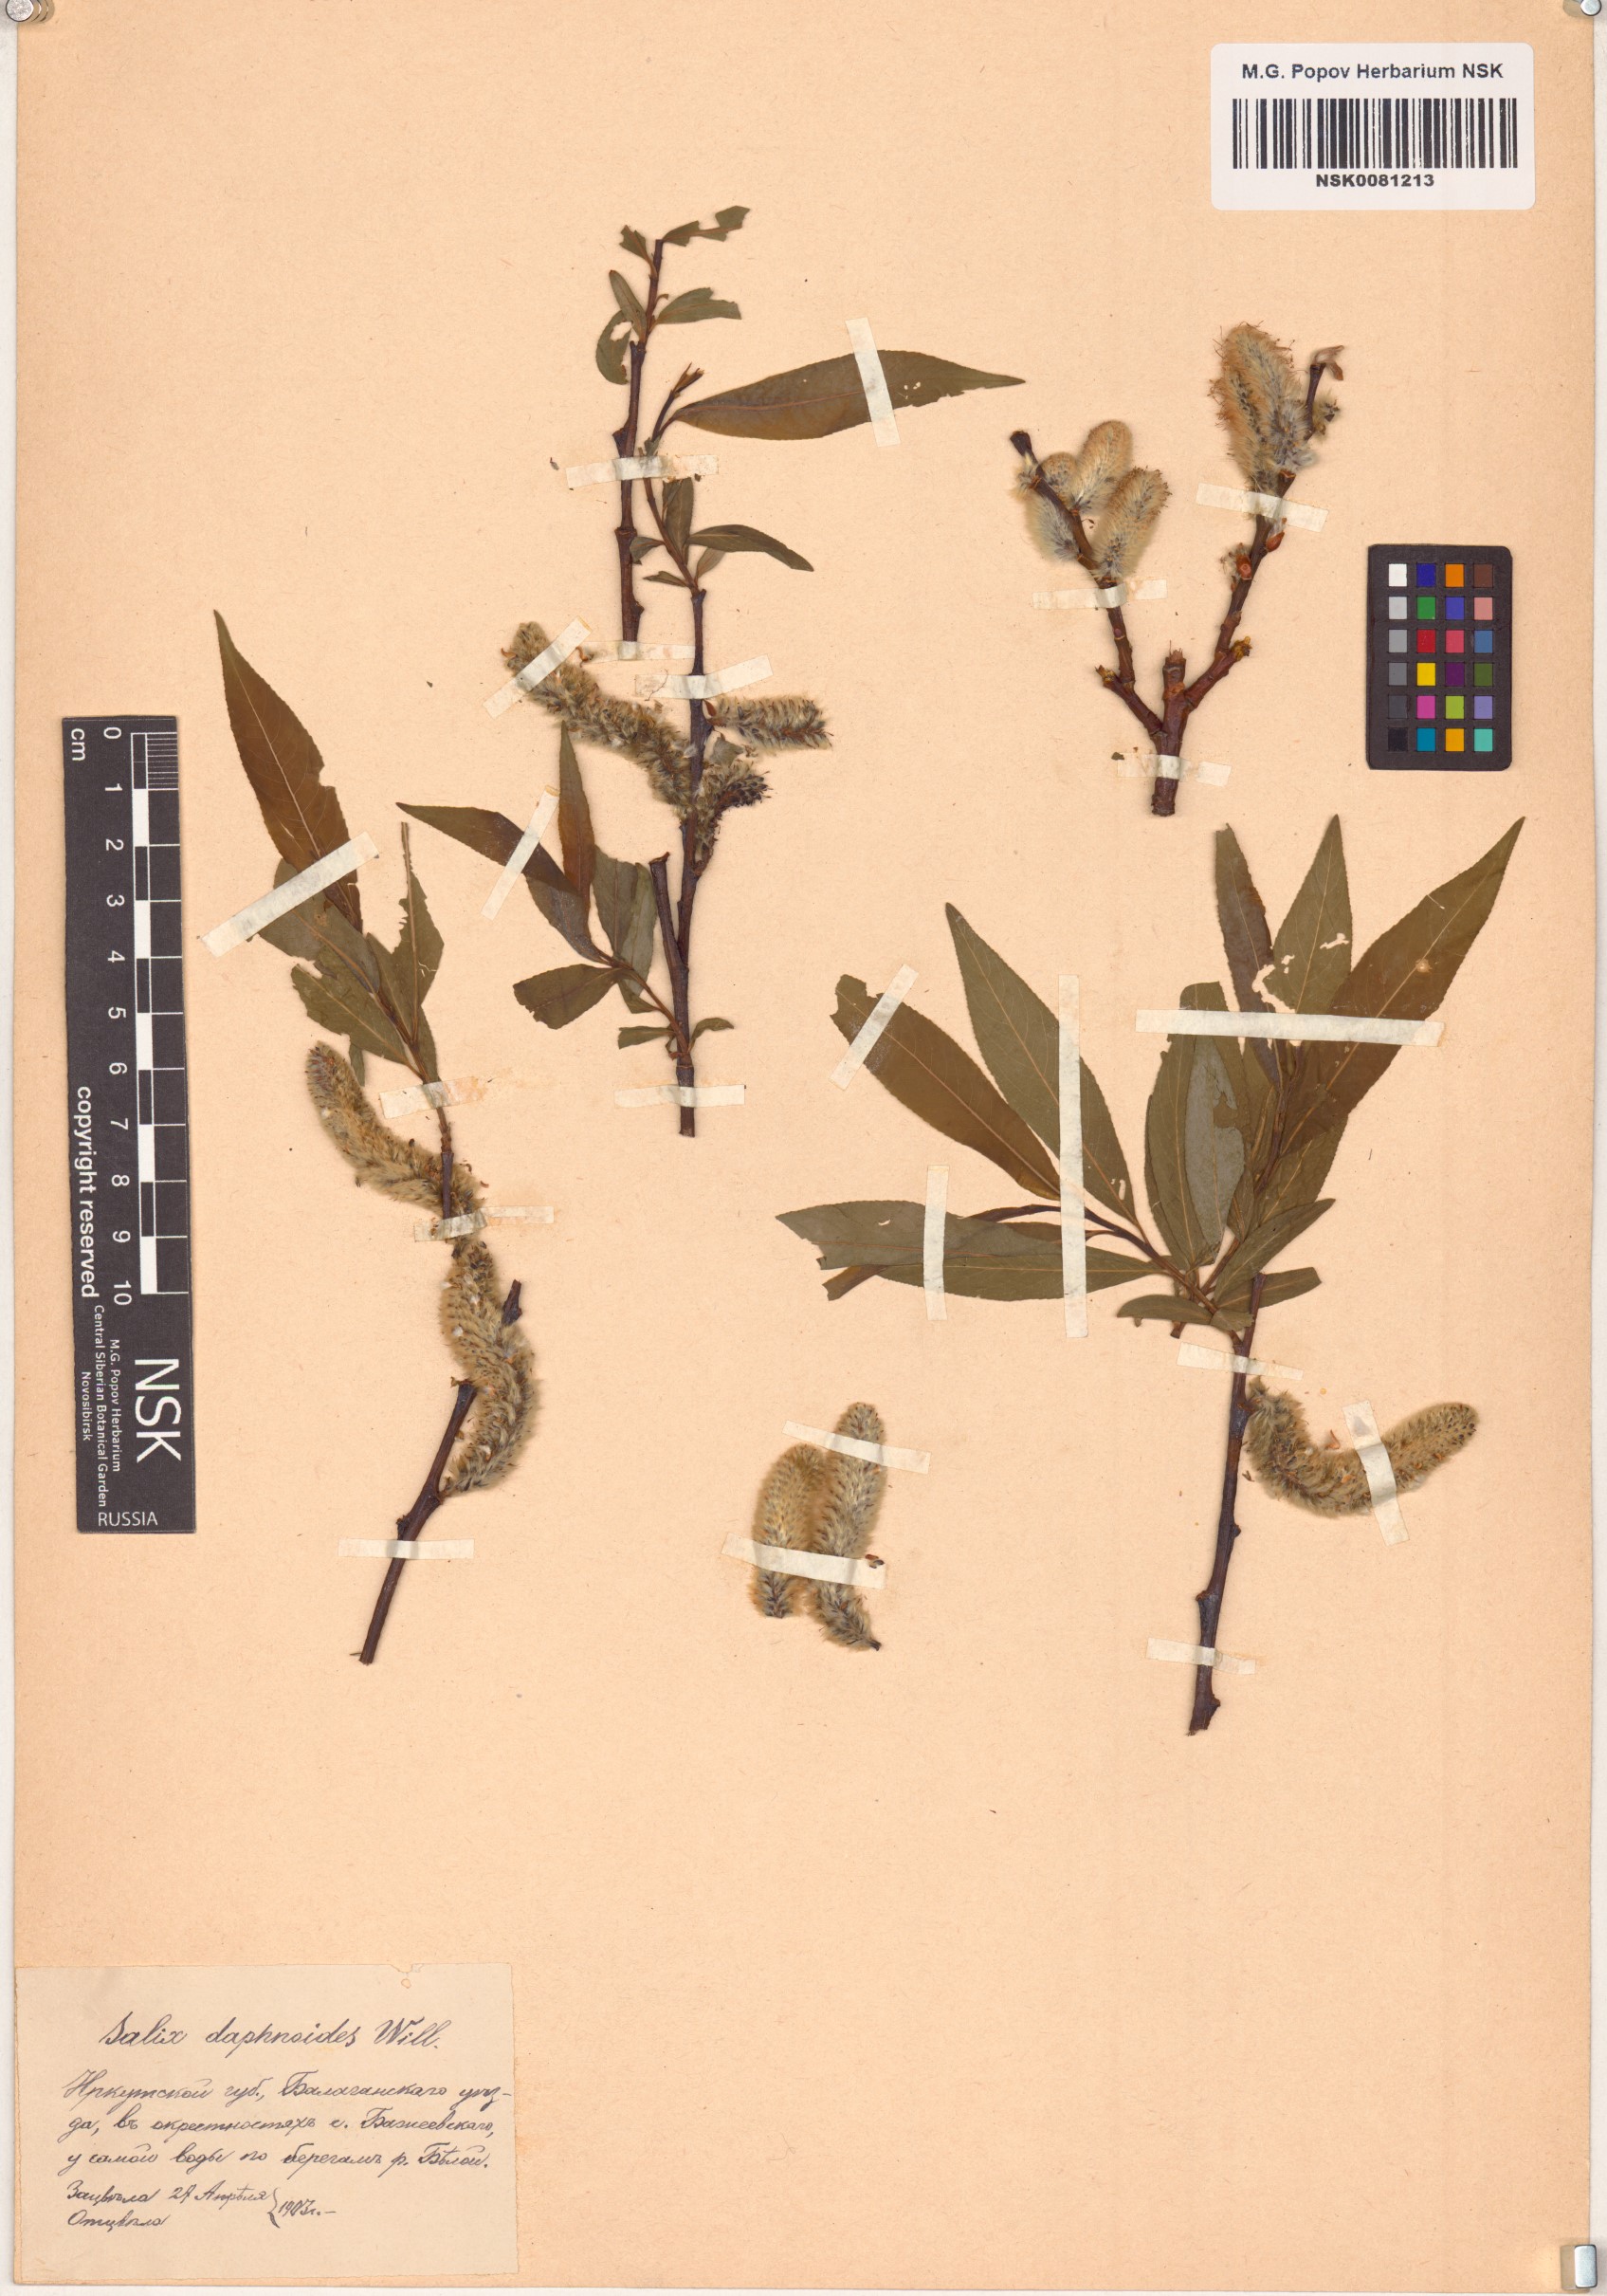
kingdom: Plantae
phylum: Tracheophyta
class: Magnoliopsida
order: Malpighiales
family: Salicaceae
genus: Salix
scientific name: Salix daphnoides
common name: European violet-willow
